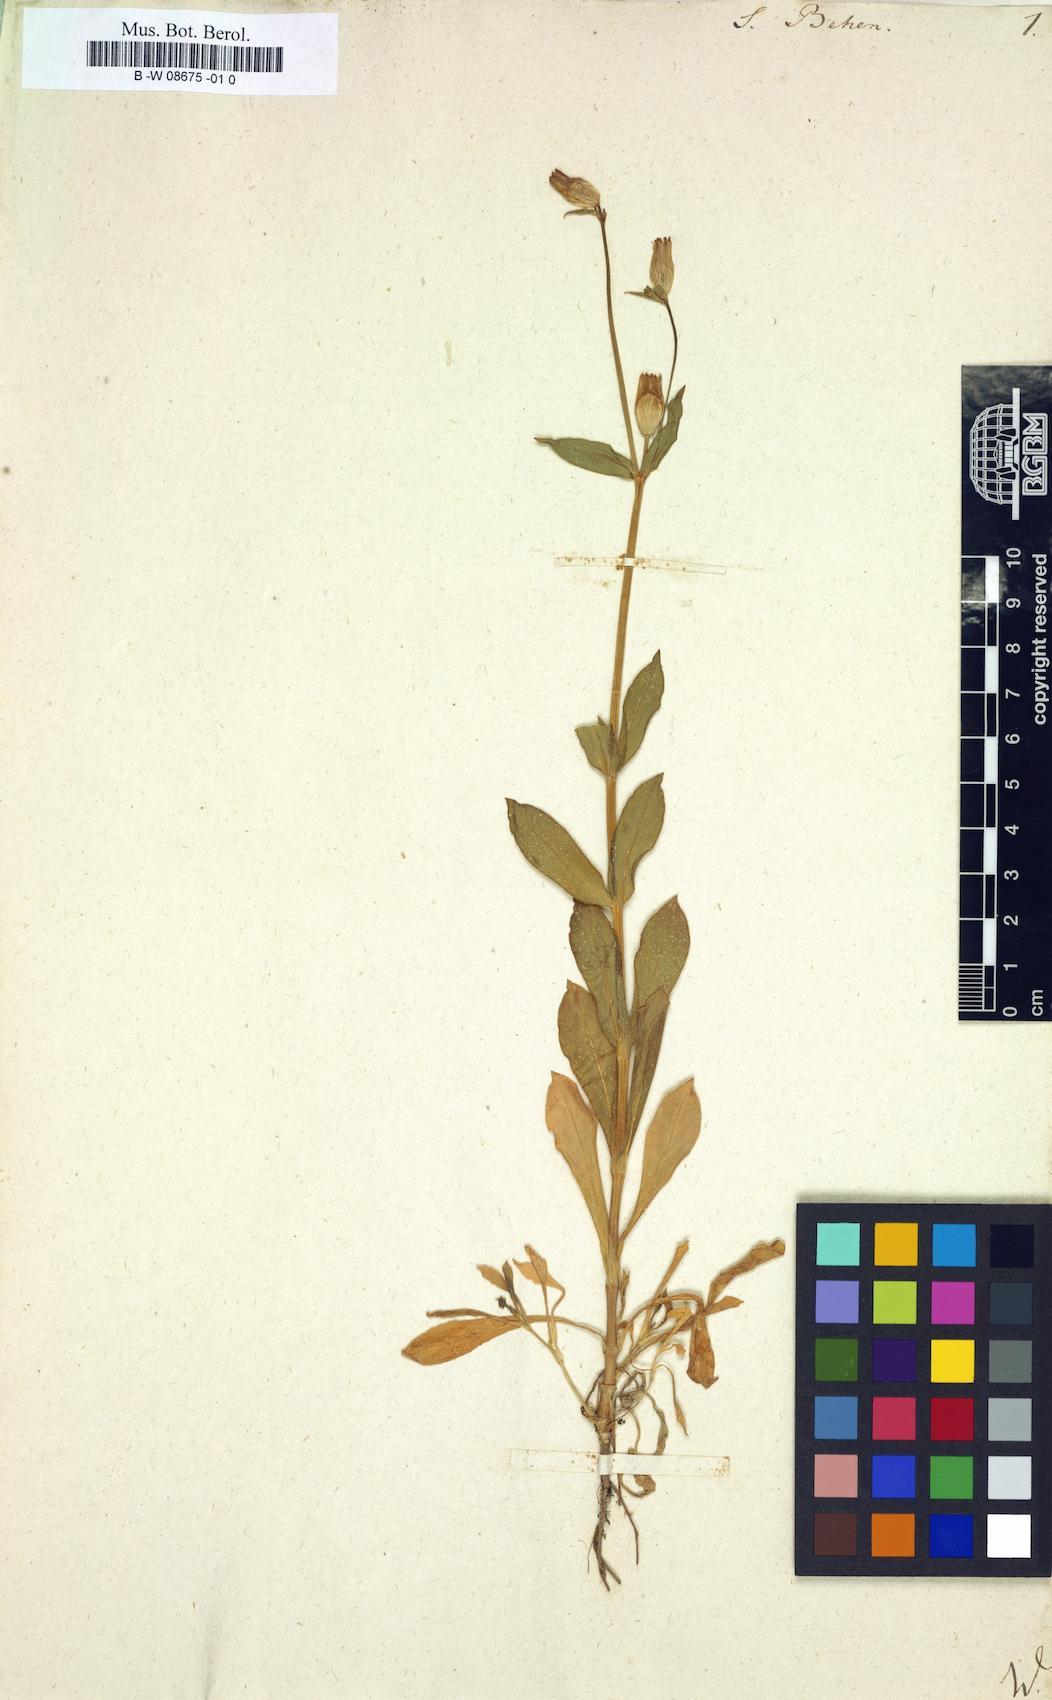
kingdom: Plantae
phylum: Tracheophyta
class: Magnoliopsida
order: Caryophyllales
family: Caryophyllaceae
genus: Silene
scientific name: Silene behen
